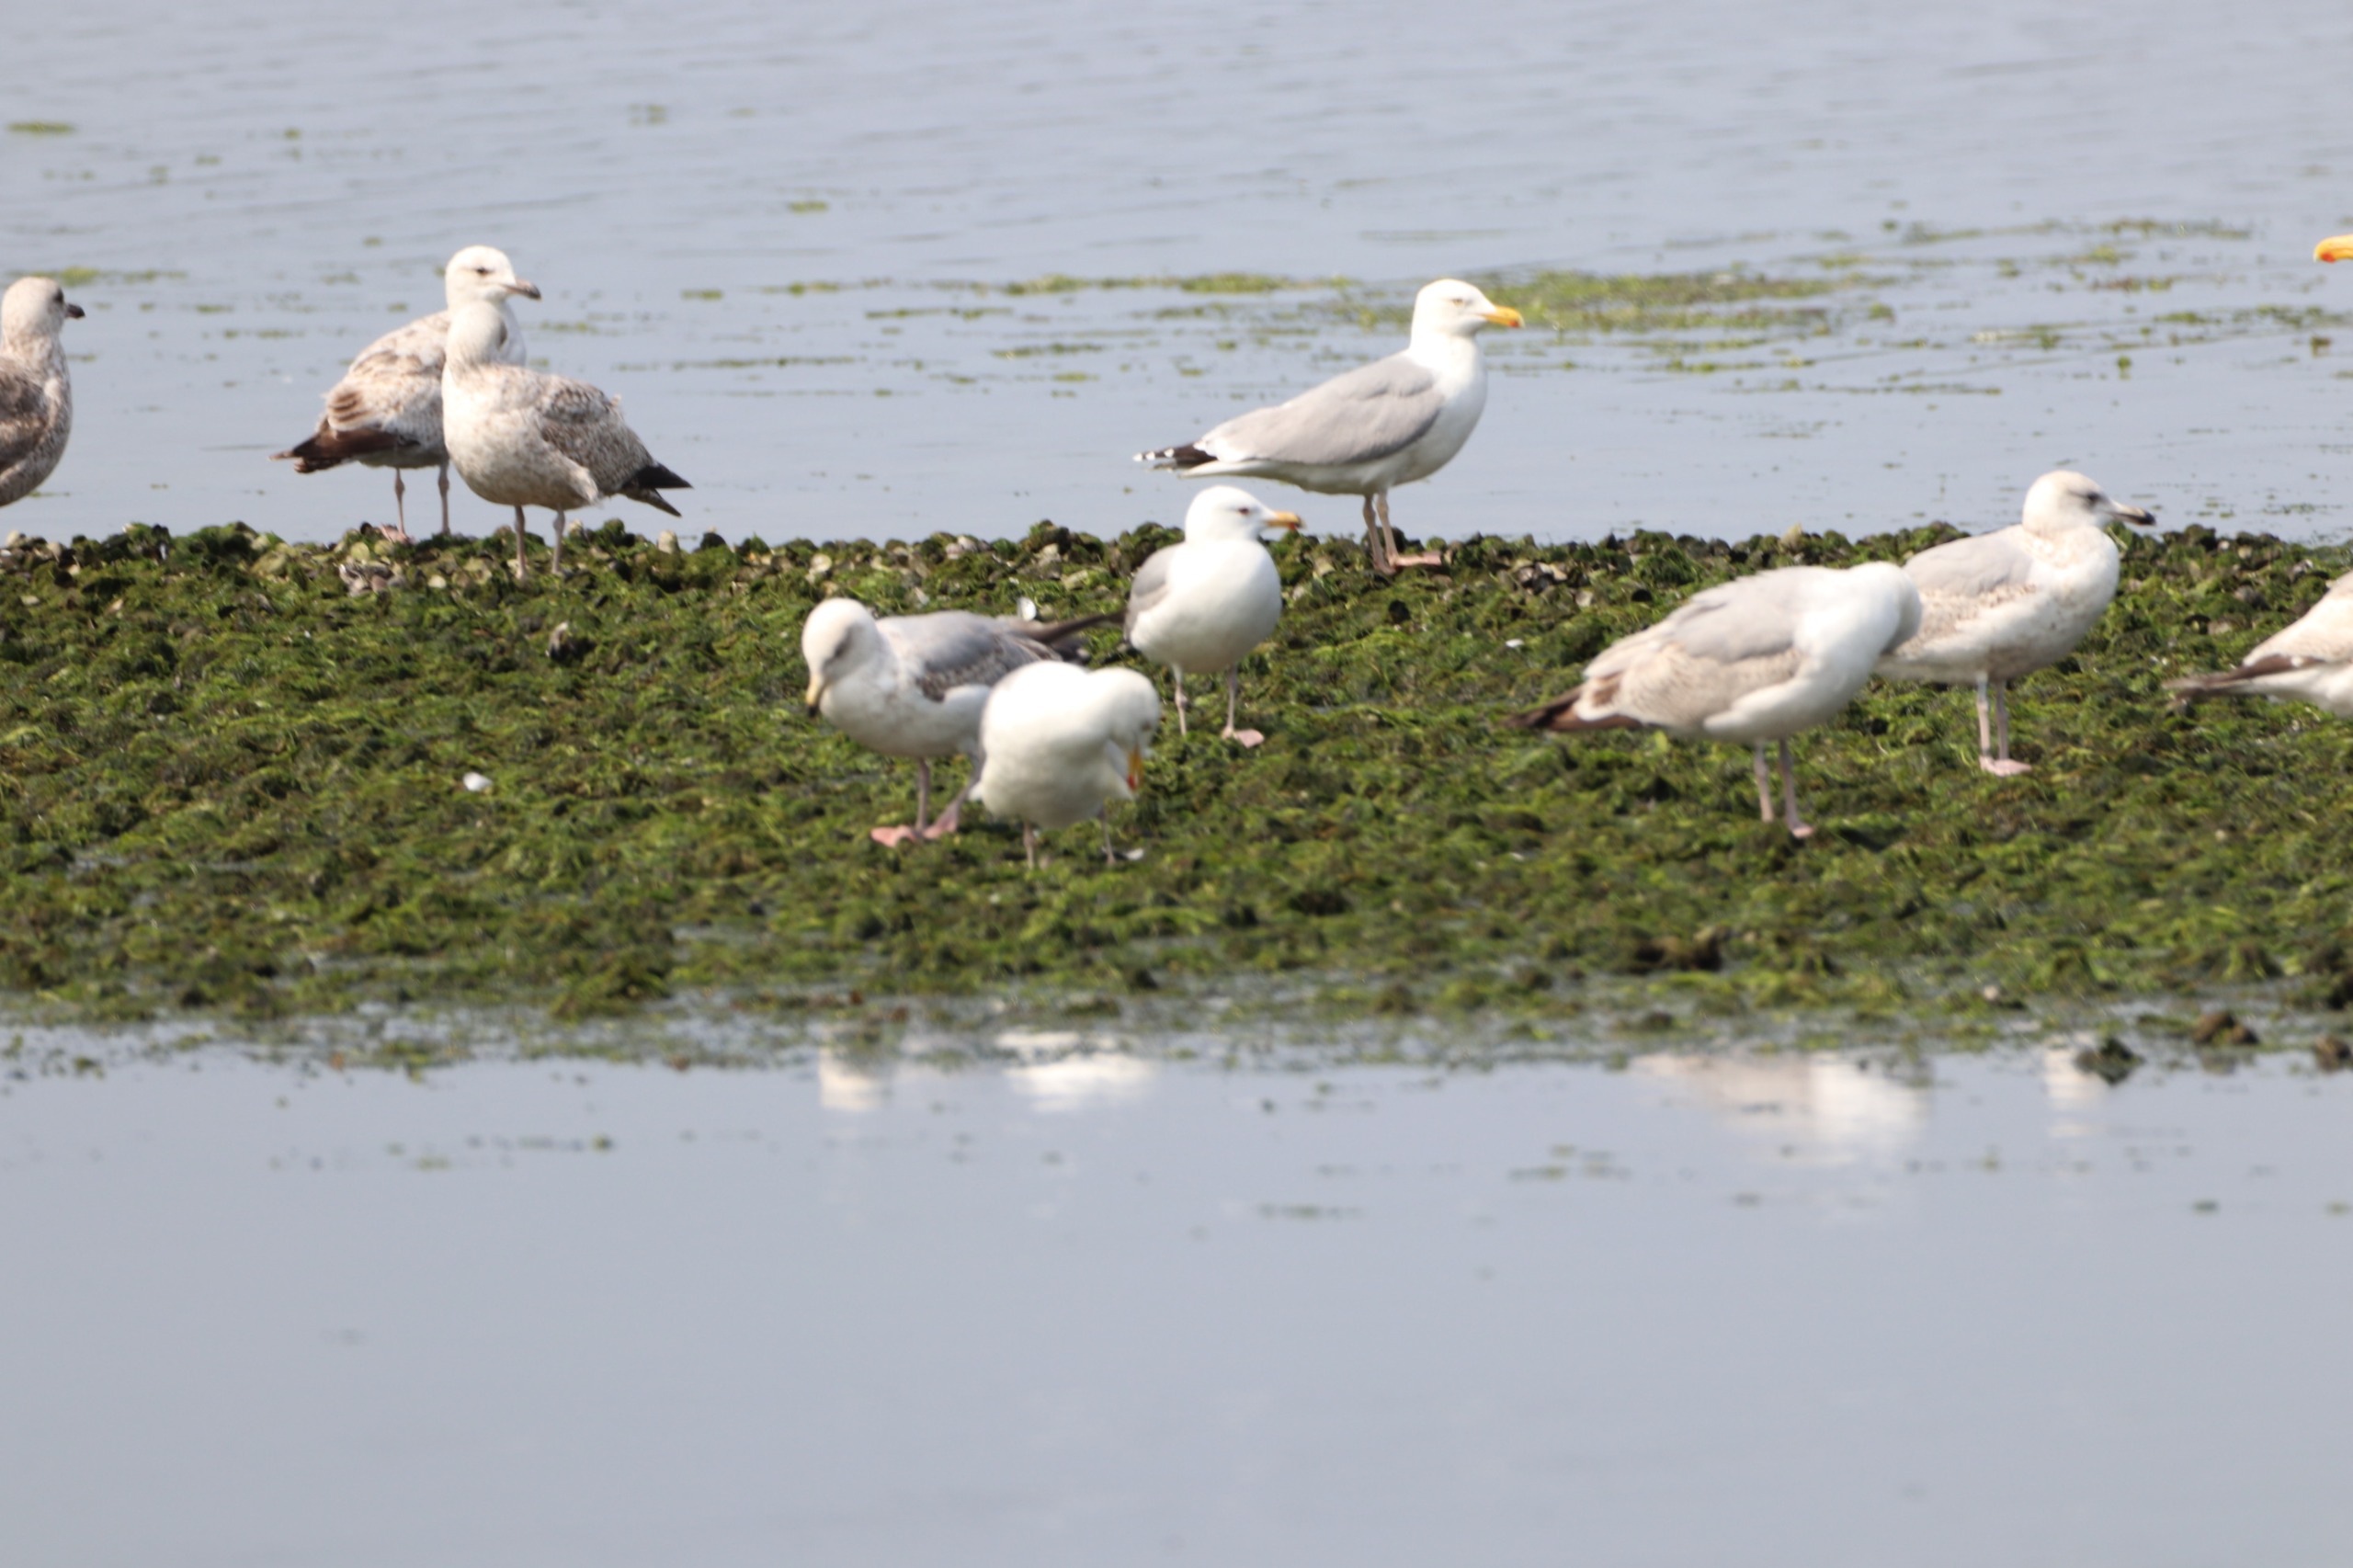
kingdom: Animalia
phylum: Chordata
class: Aves
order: Charadriiformes
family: Laridae
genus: Larus
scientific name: Larus argentatus
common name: Sølvmåge
